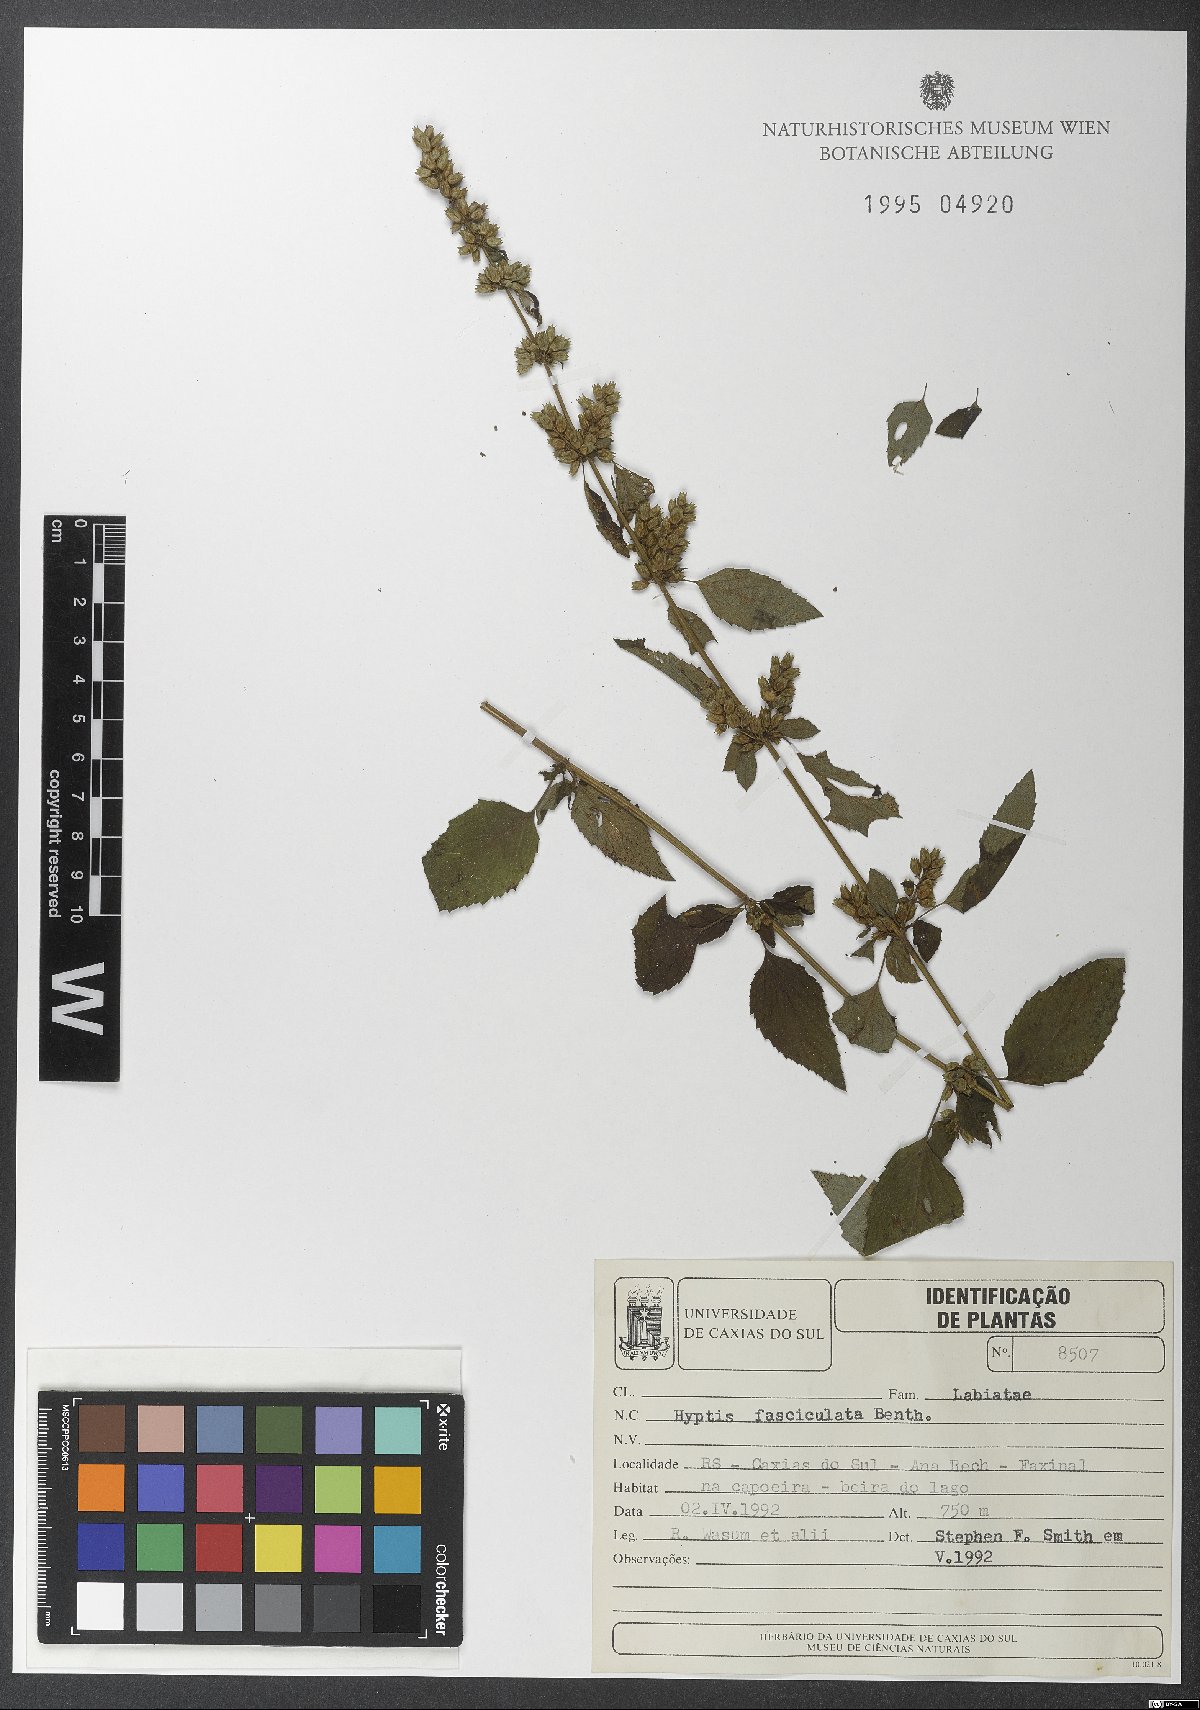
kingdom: Plantae
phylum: Tracheophyta
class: Magnoliopsida
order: Lamiales
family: Lamiaceae
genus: Condea
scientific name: Condea undulata
